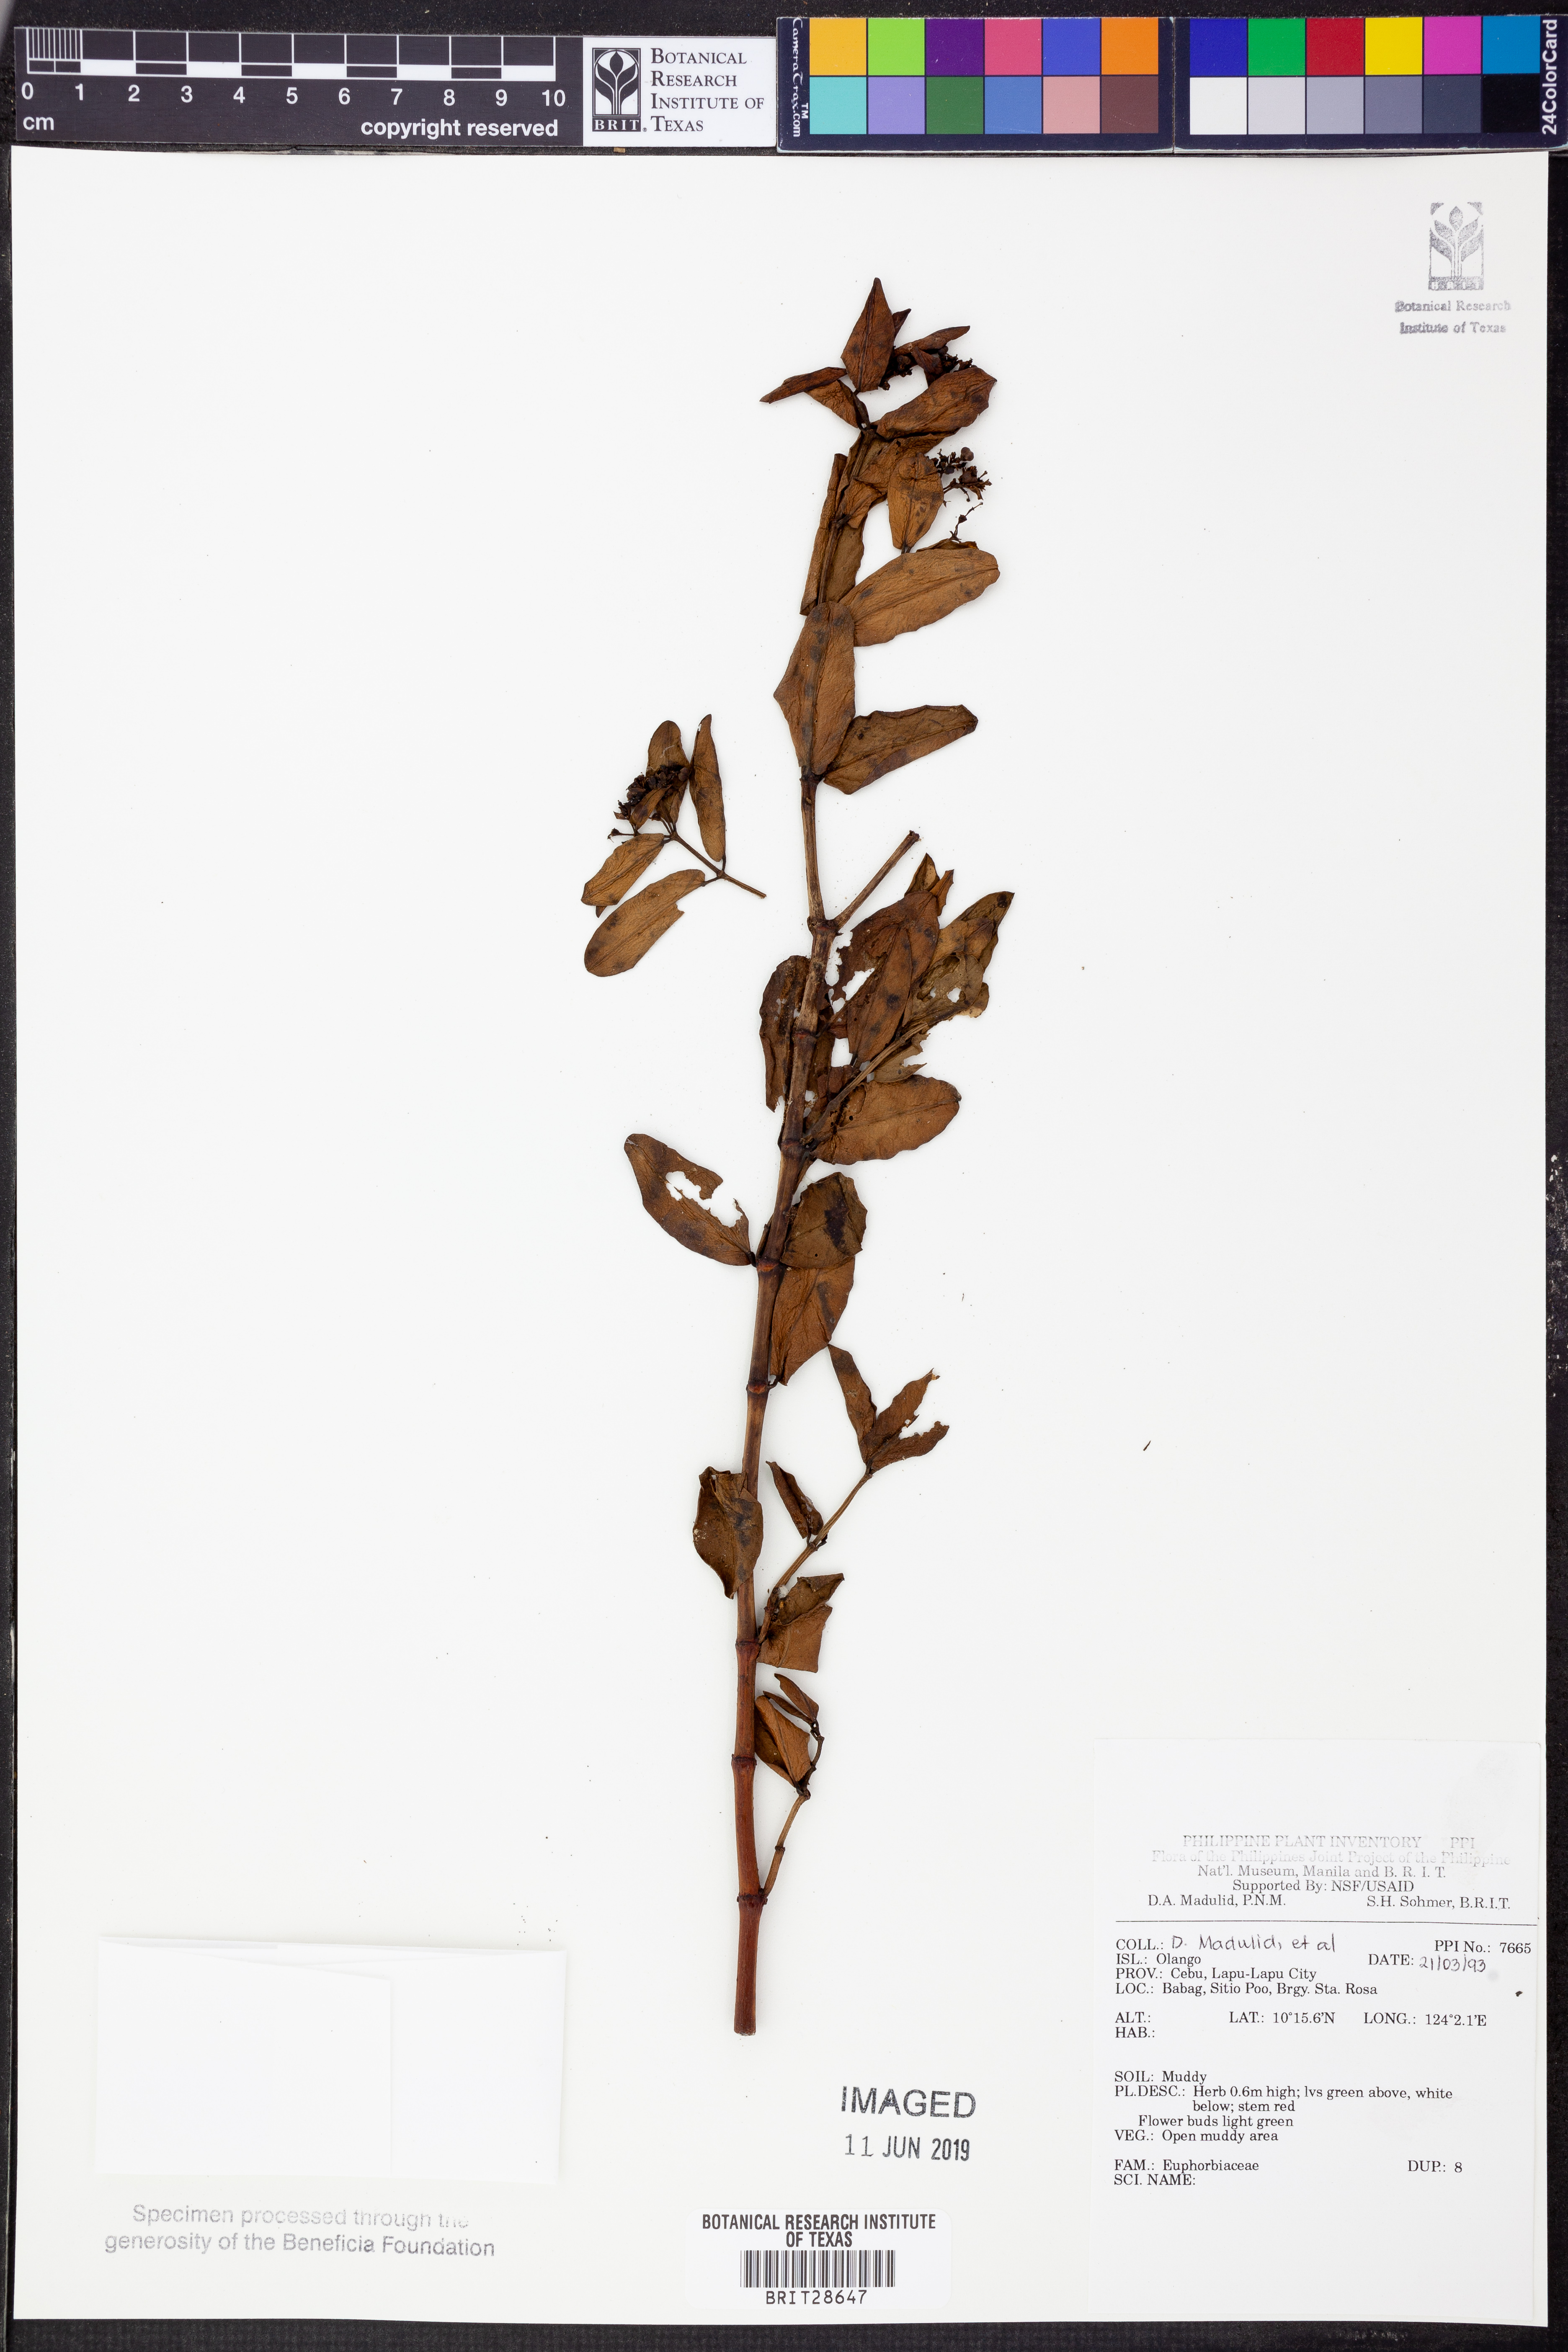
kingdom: Plantae
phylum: Tracheophyta
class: Magnoliopsida
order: Malpighiales
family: Euphorbiaceae
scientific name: Euphorbiaceae
